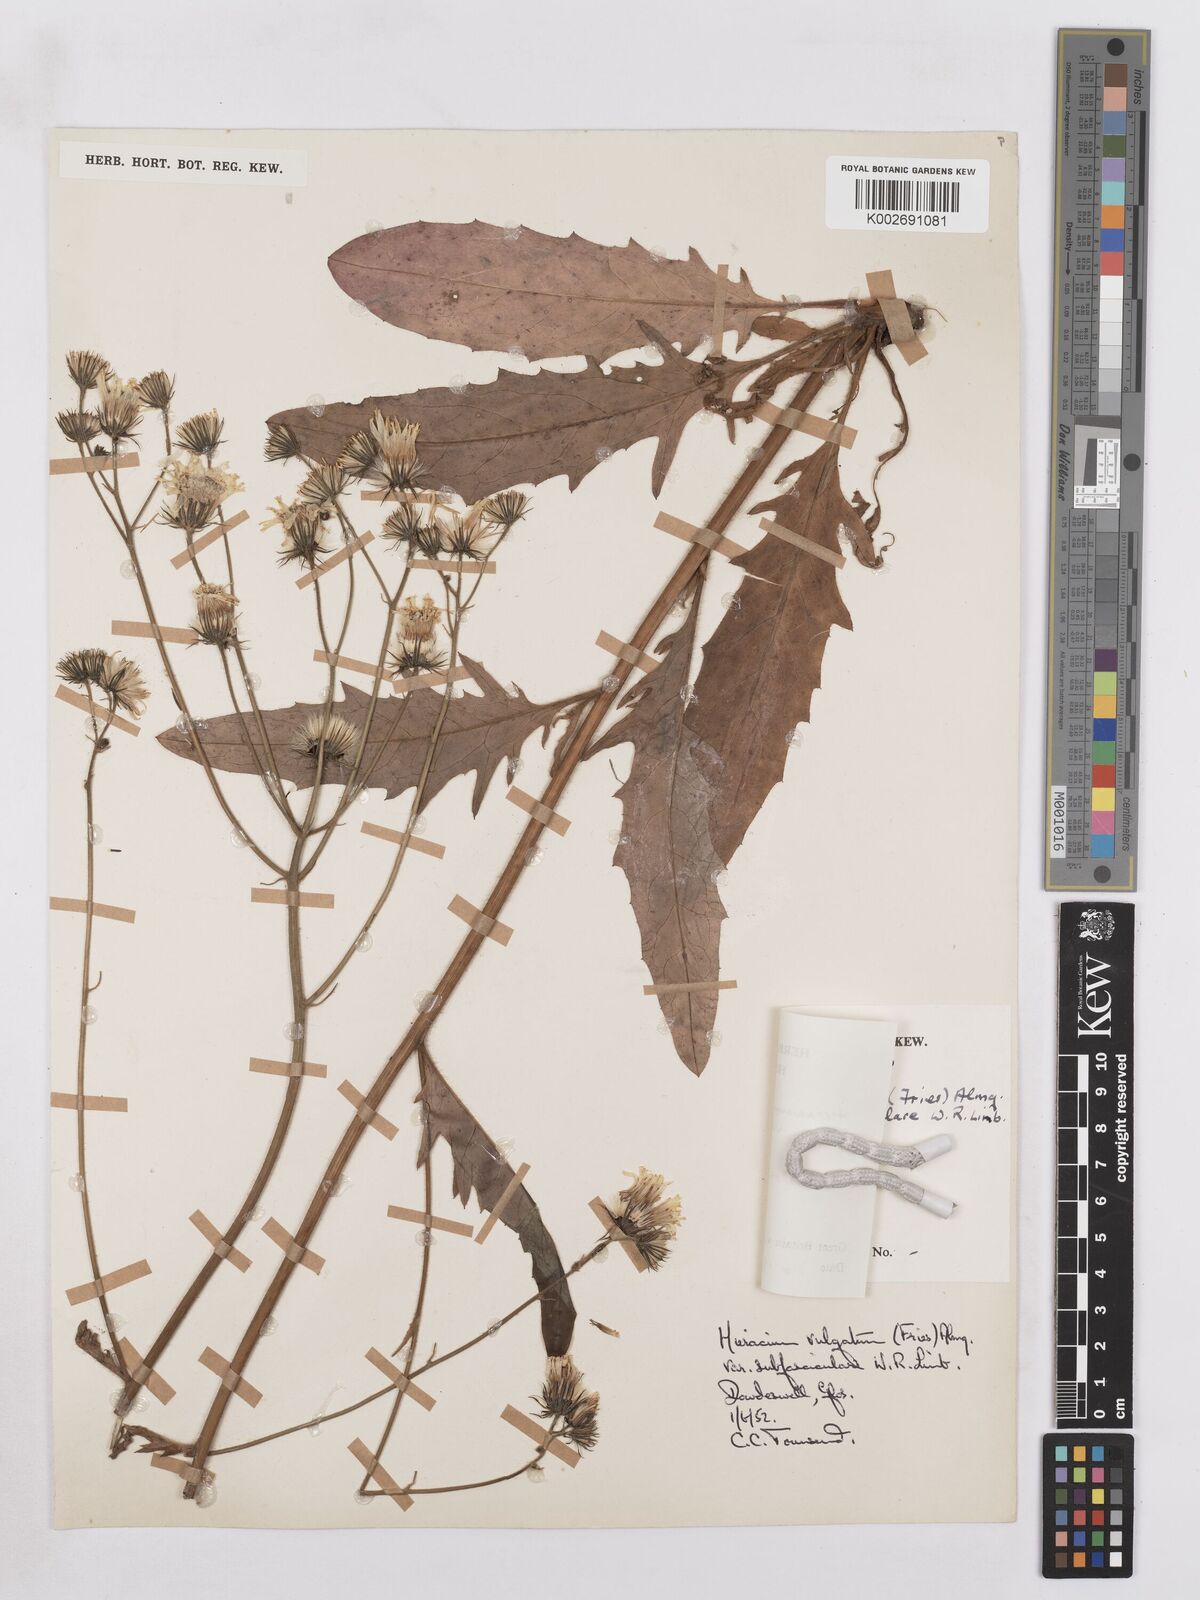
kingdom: Plantae
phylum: Tracheophyta
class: Magnoliopsida
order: Asterales
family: Asteraceae
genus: Hieracium
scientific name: Hieracium levicaule
